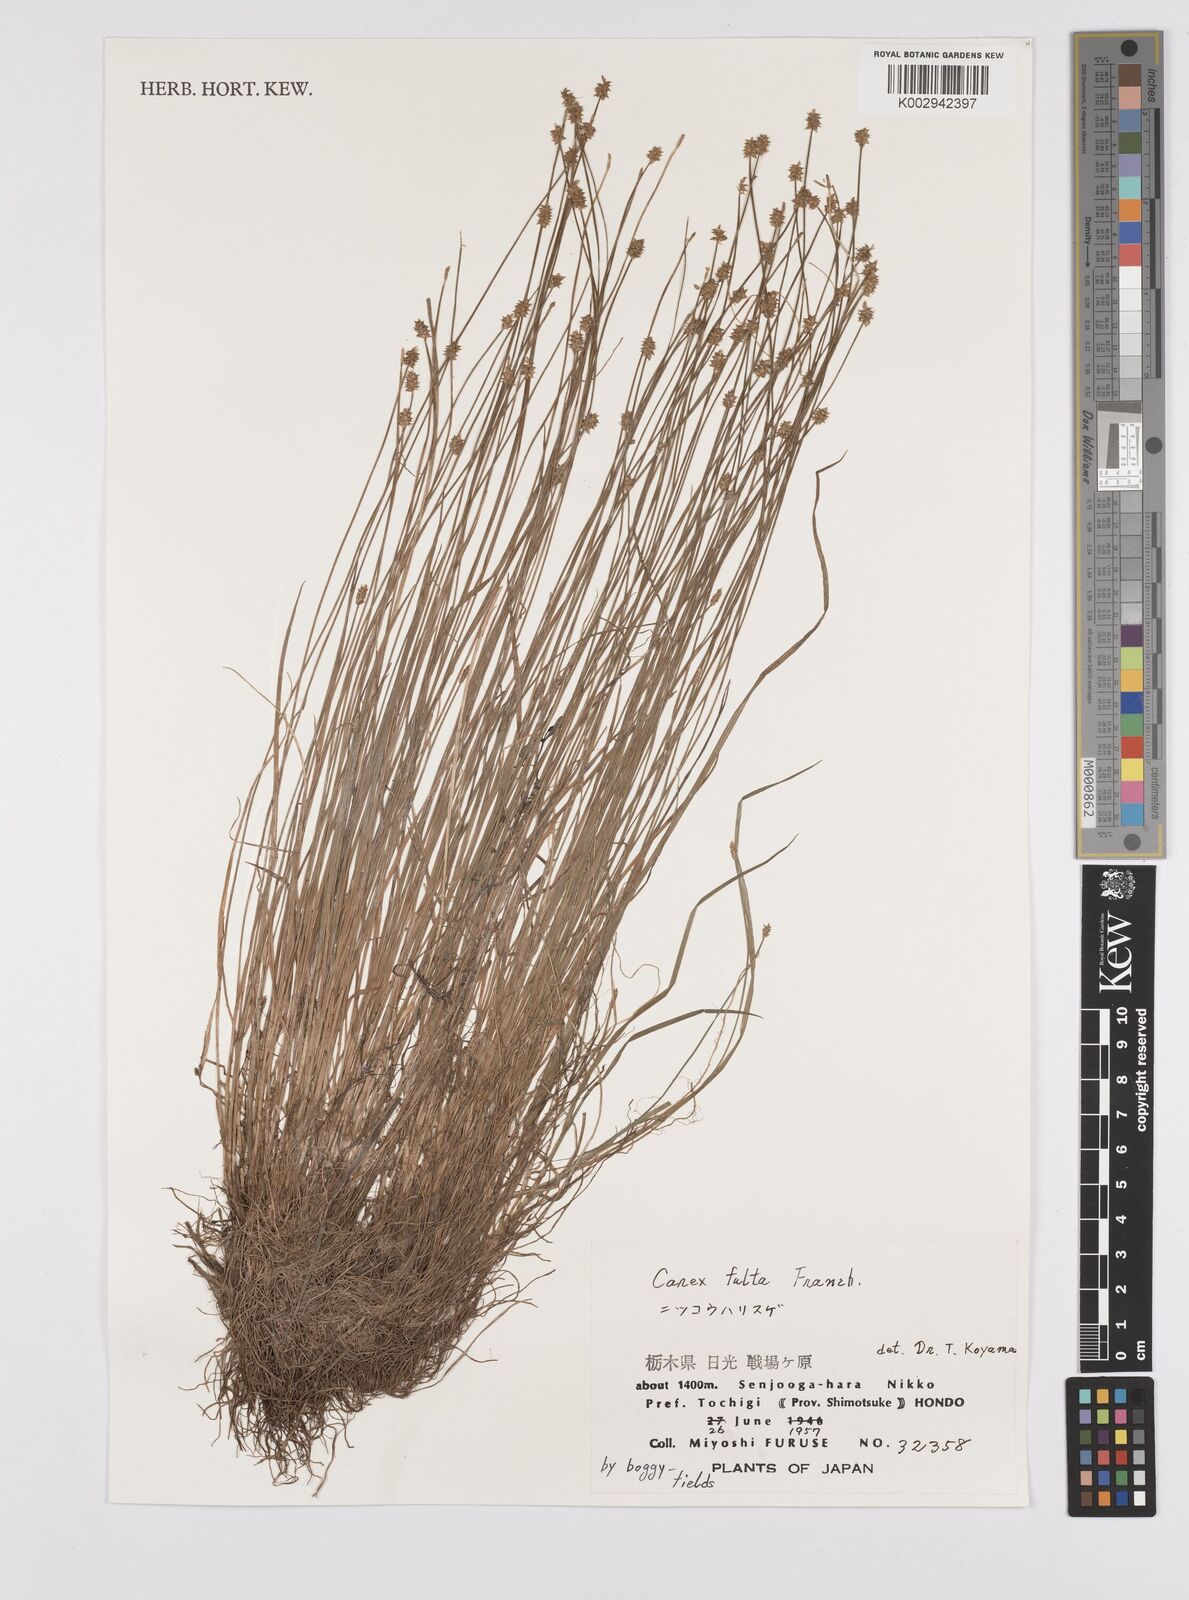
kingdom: Plantae
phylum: Tracheophyta
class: Liliopsida
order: Poales
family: Cyperaceae
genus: Carex
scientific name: Carex pilosa
